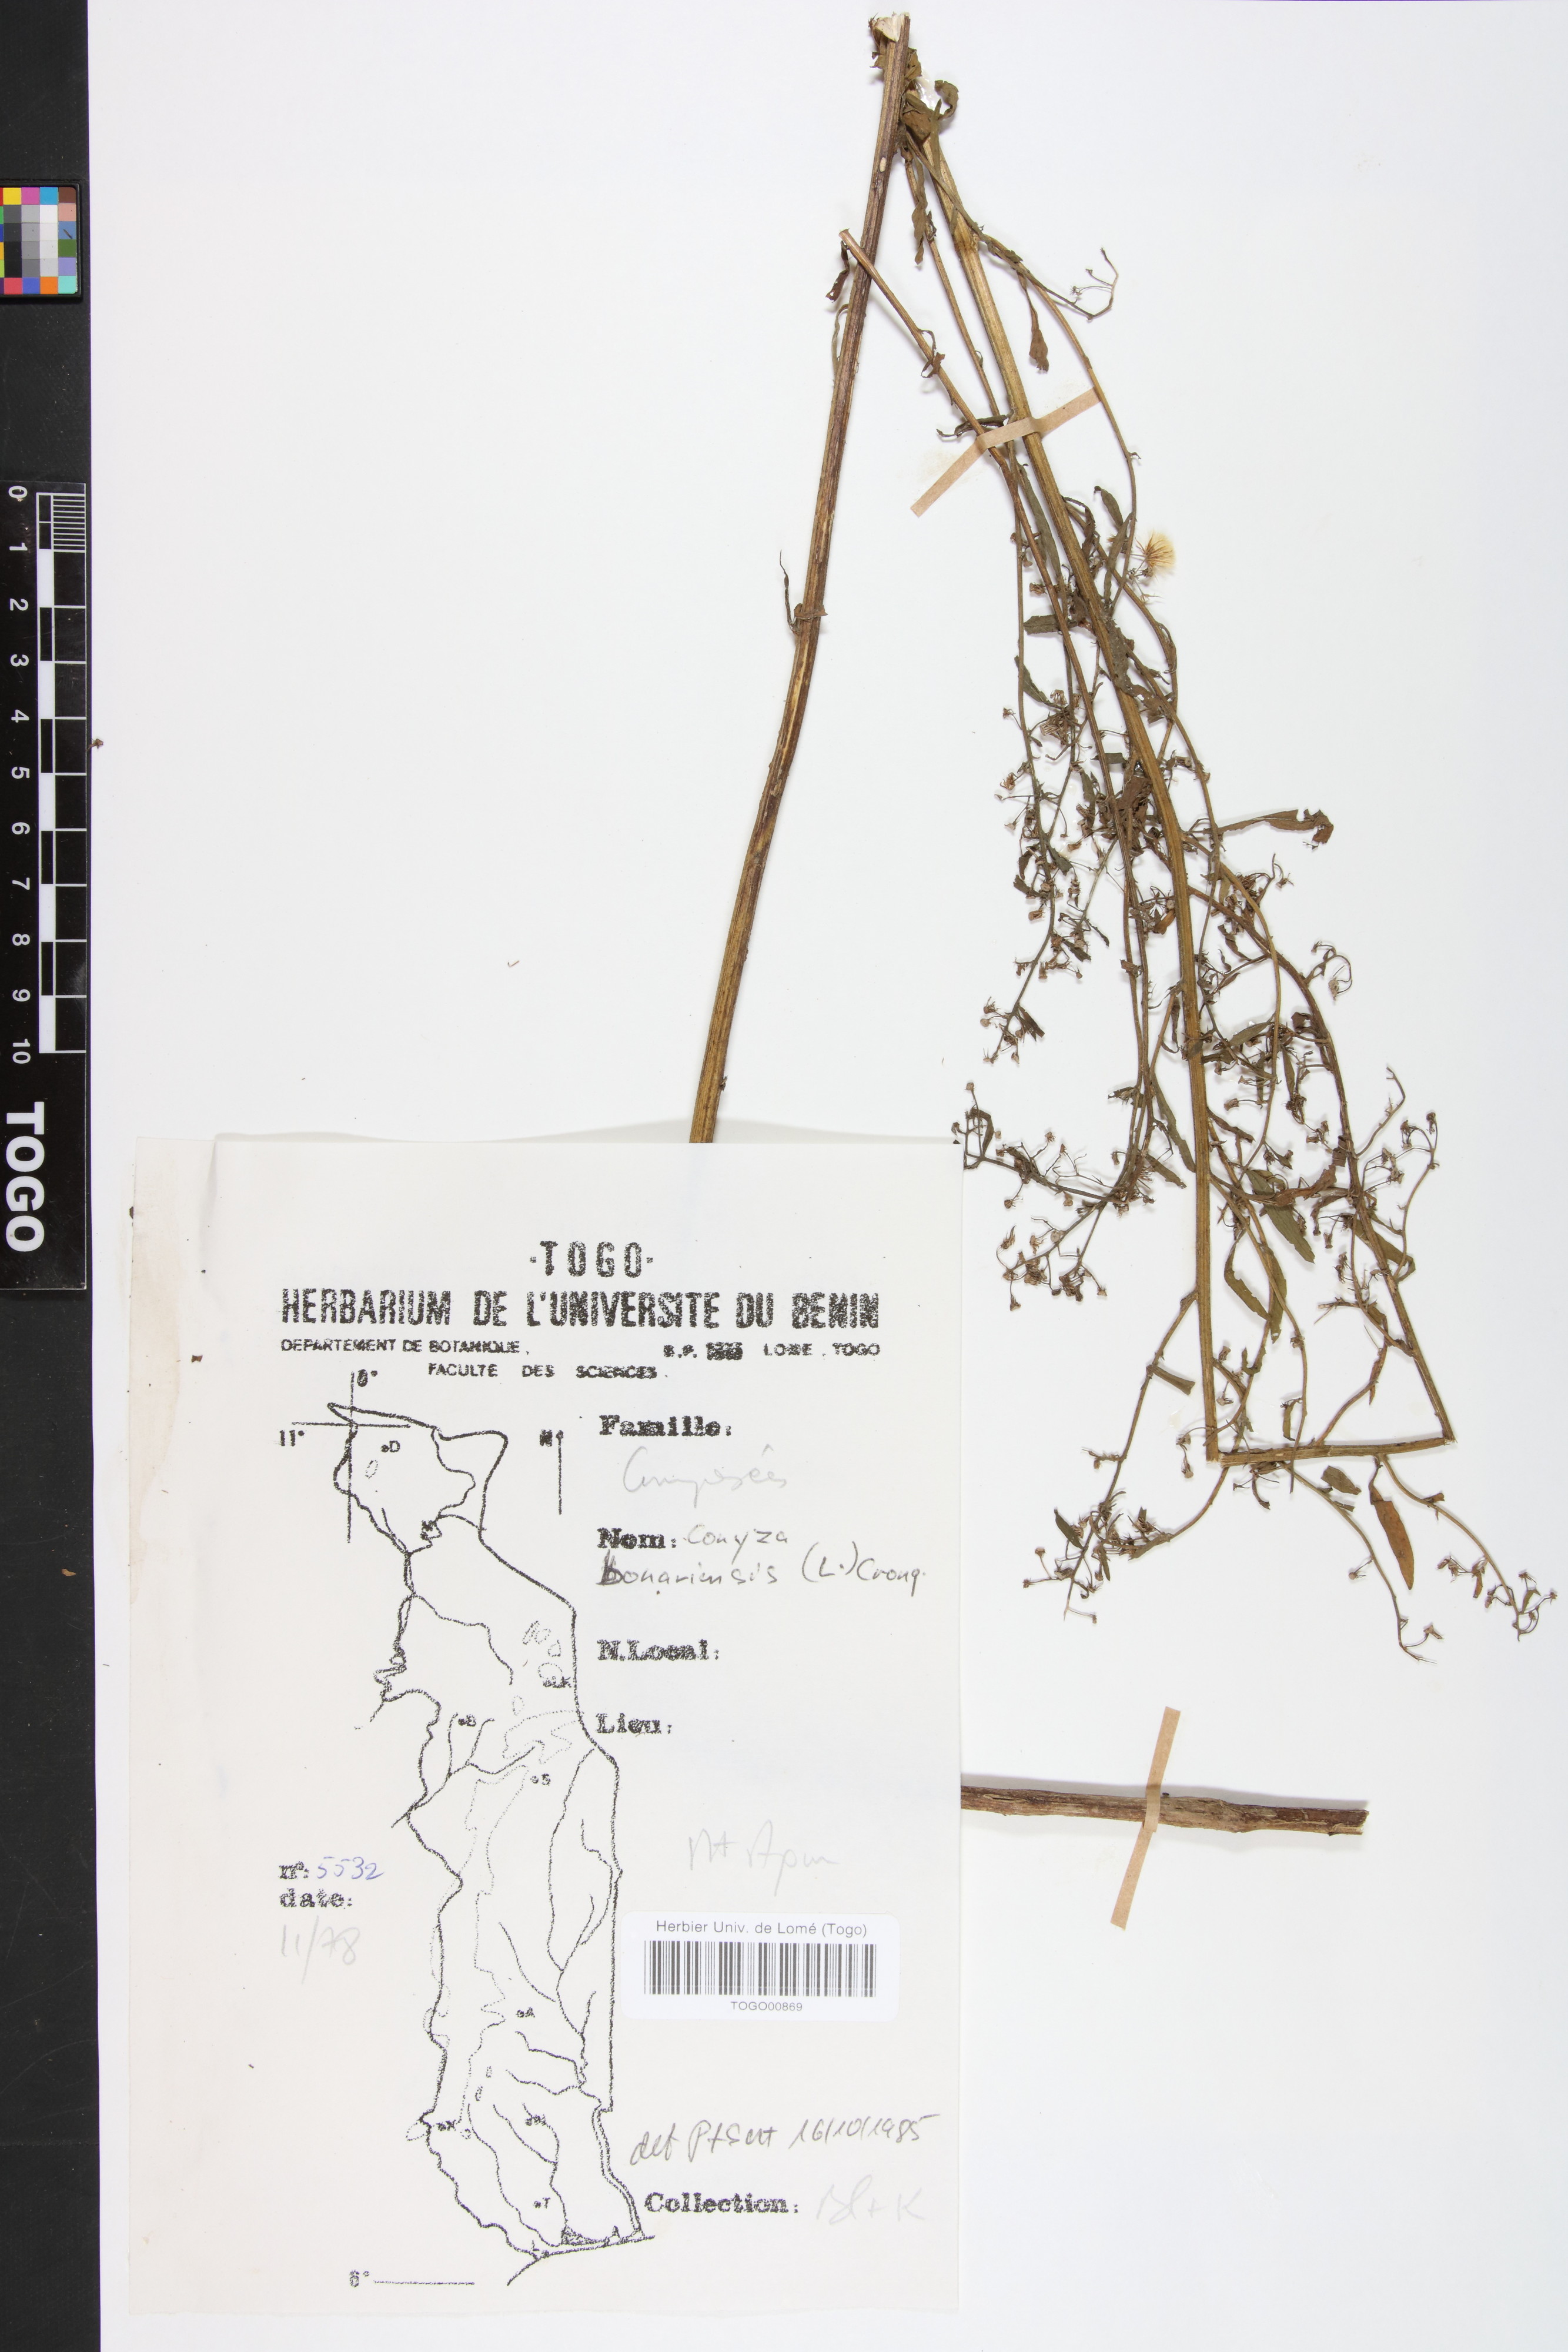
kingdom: Plantae
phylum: Tracheophyta
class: Magnoliopsida
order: Asterales
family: Asteraceae
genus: Erigeron
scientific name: Erigeron bonariensis
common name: Argentine fleabane
